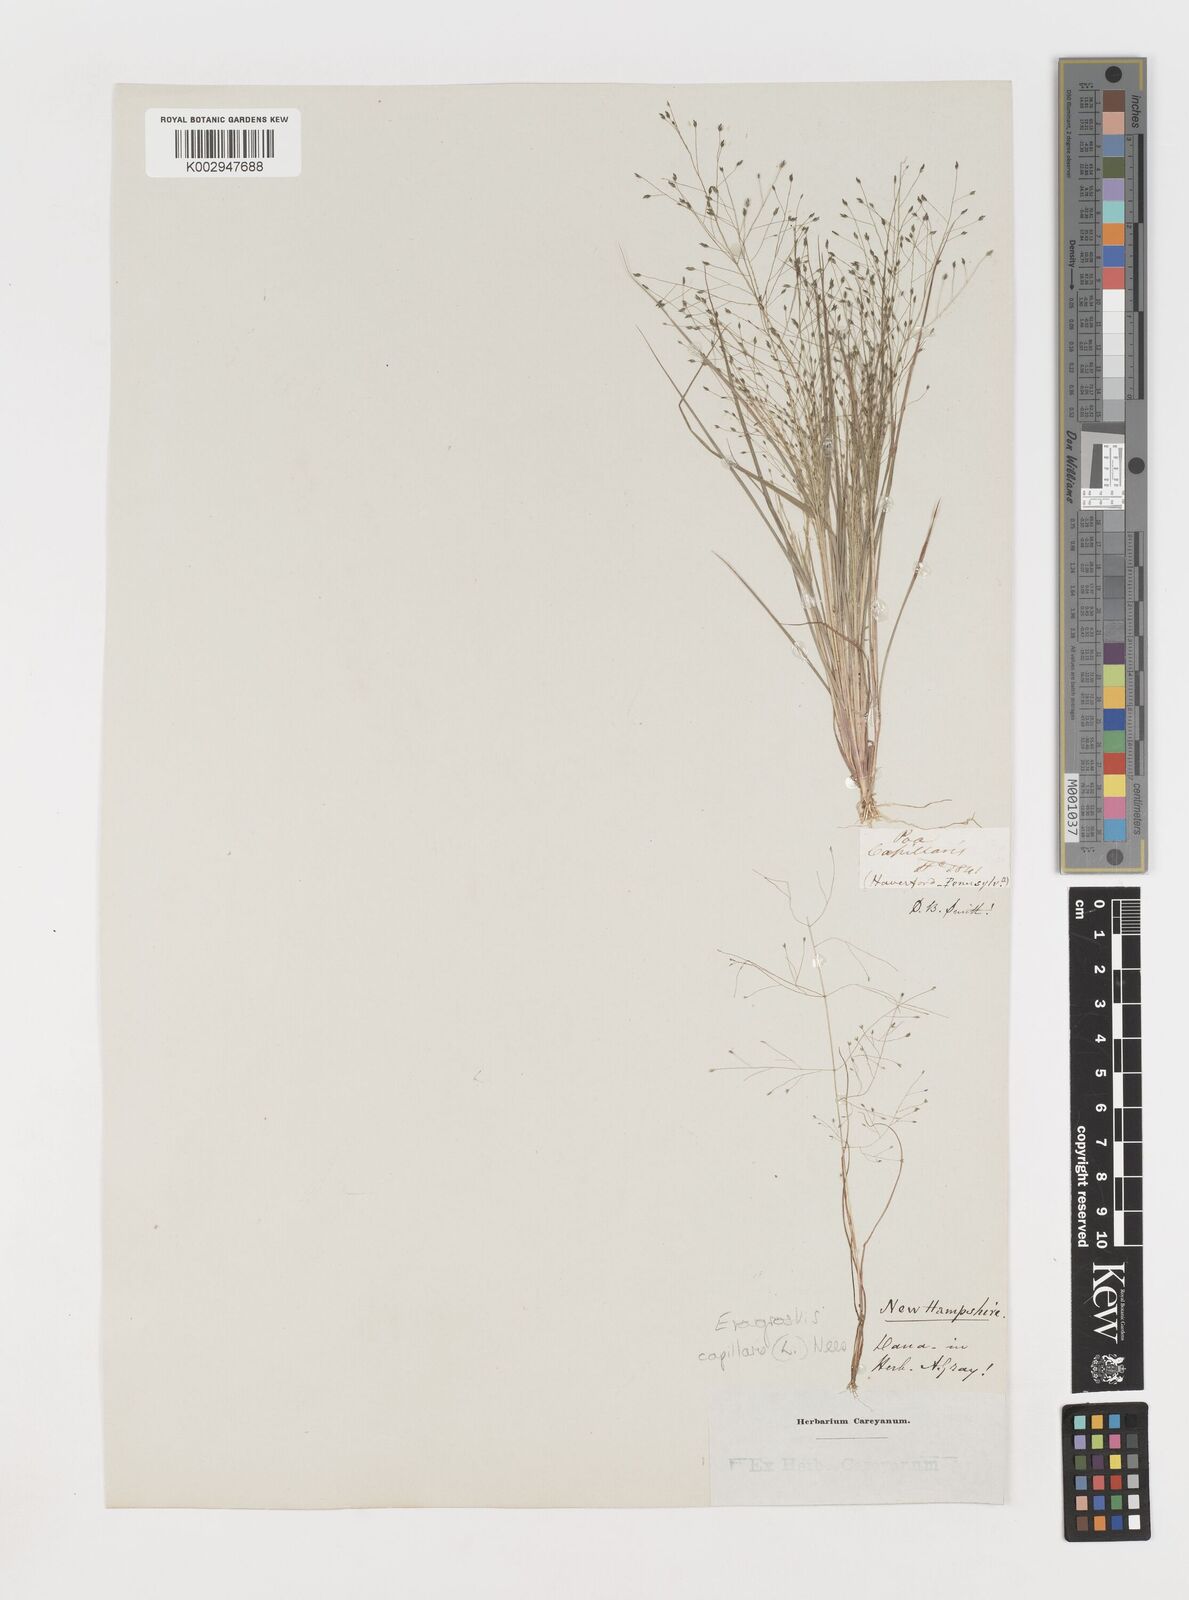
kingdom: Plantae
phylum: Tracheophyta
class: Liliopsida
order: Poales
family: Poaceae
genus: Eragrostis
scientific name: Eragrostis capillaris
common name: Hair-like lovegrass
